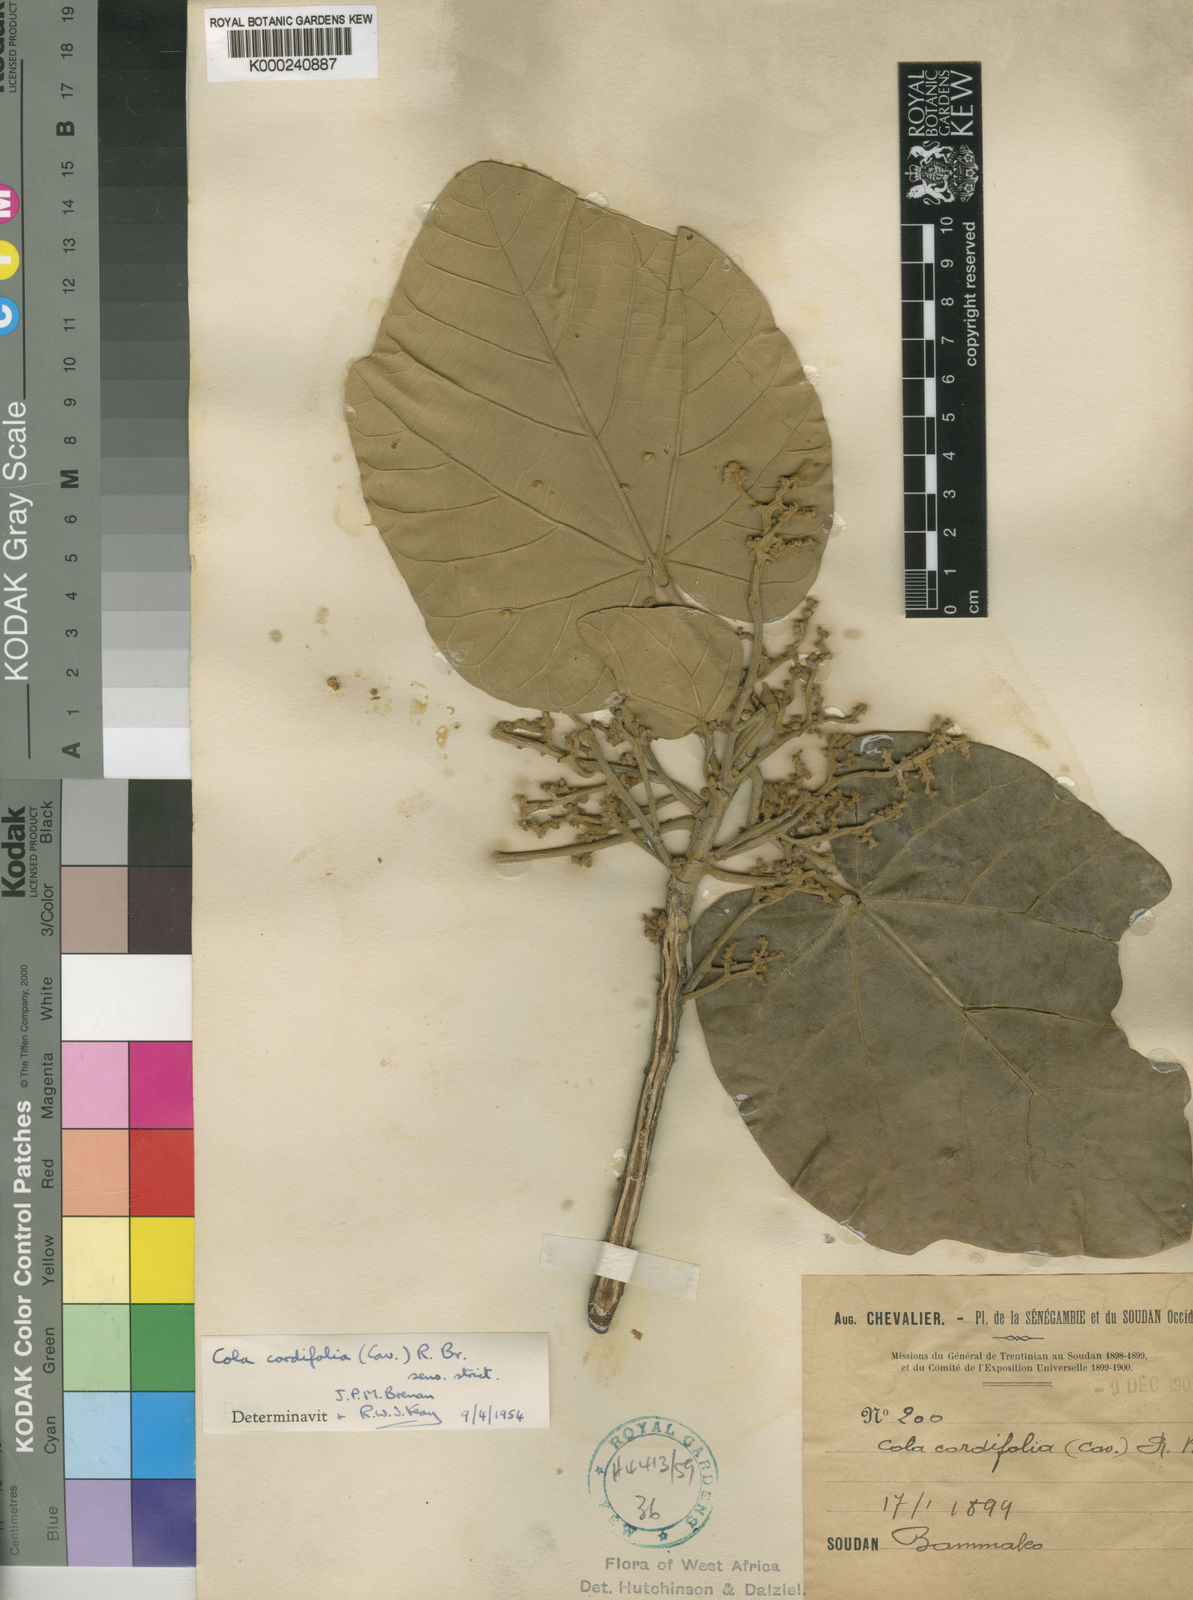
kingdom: Plantae
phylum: Tracheophyta
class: Magnoliopsida
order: Malvales
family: Malvaceae
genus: Cola
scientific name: Cola cordifolia
